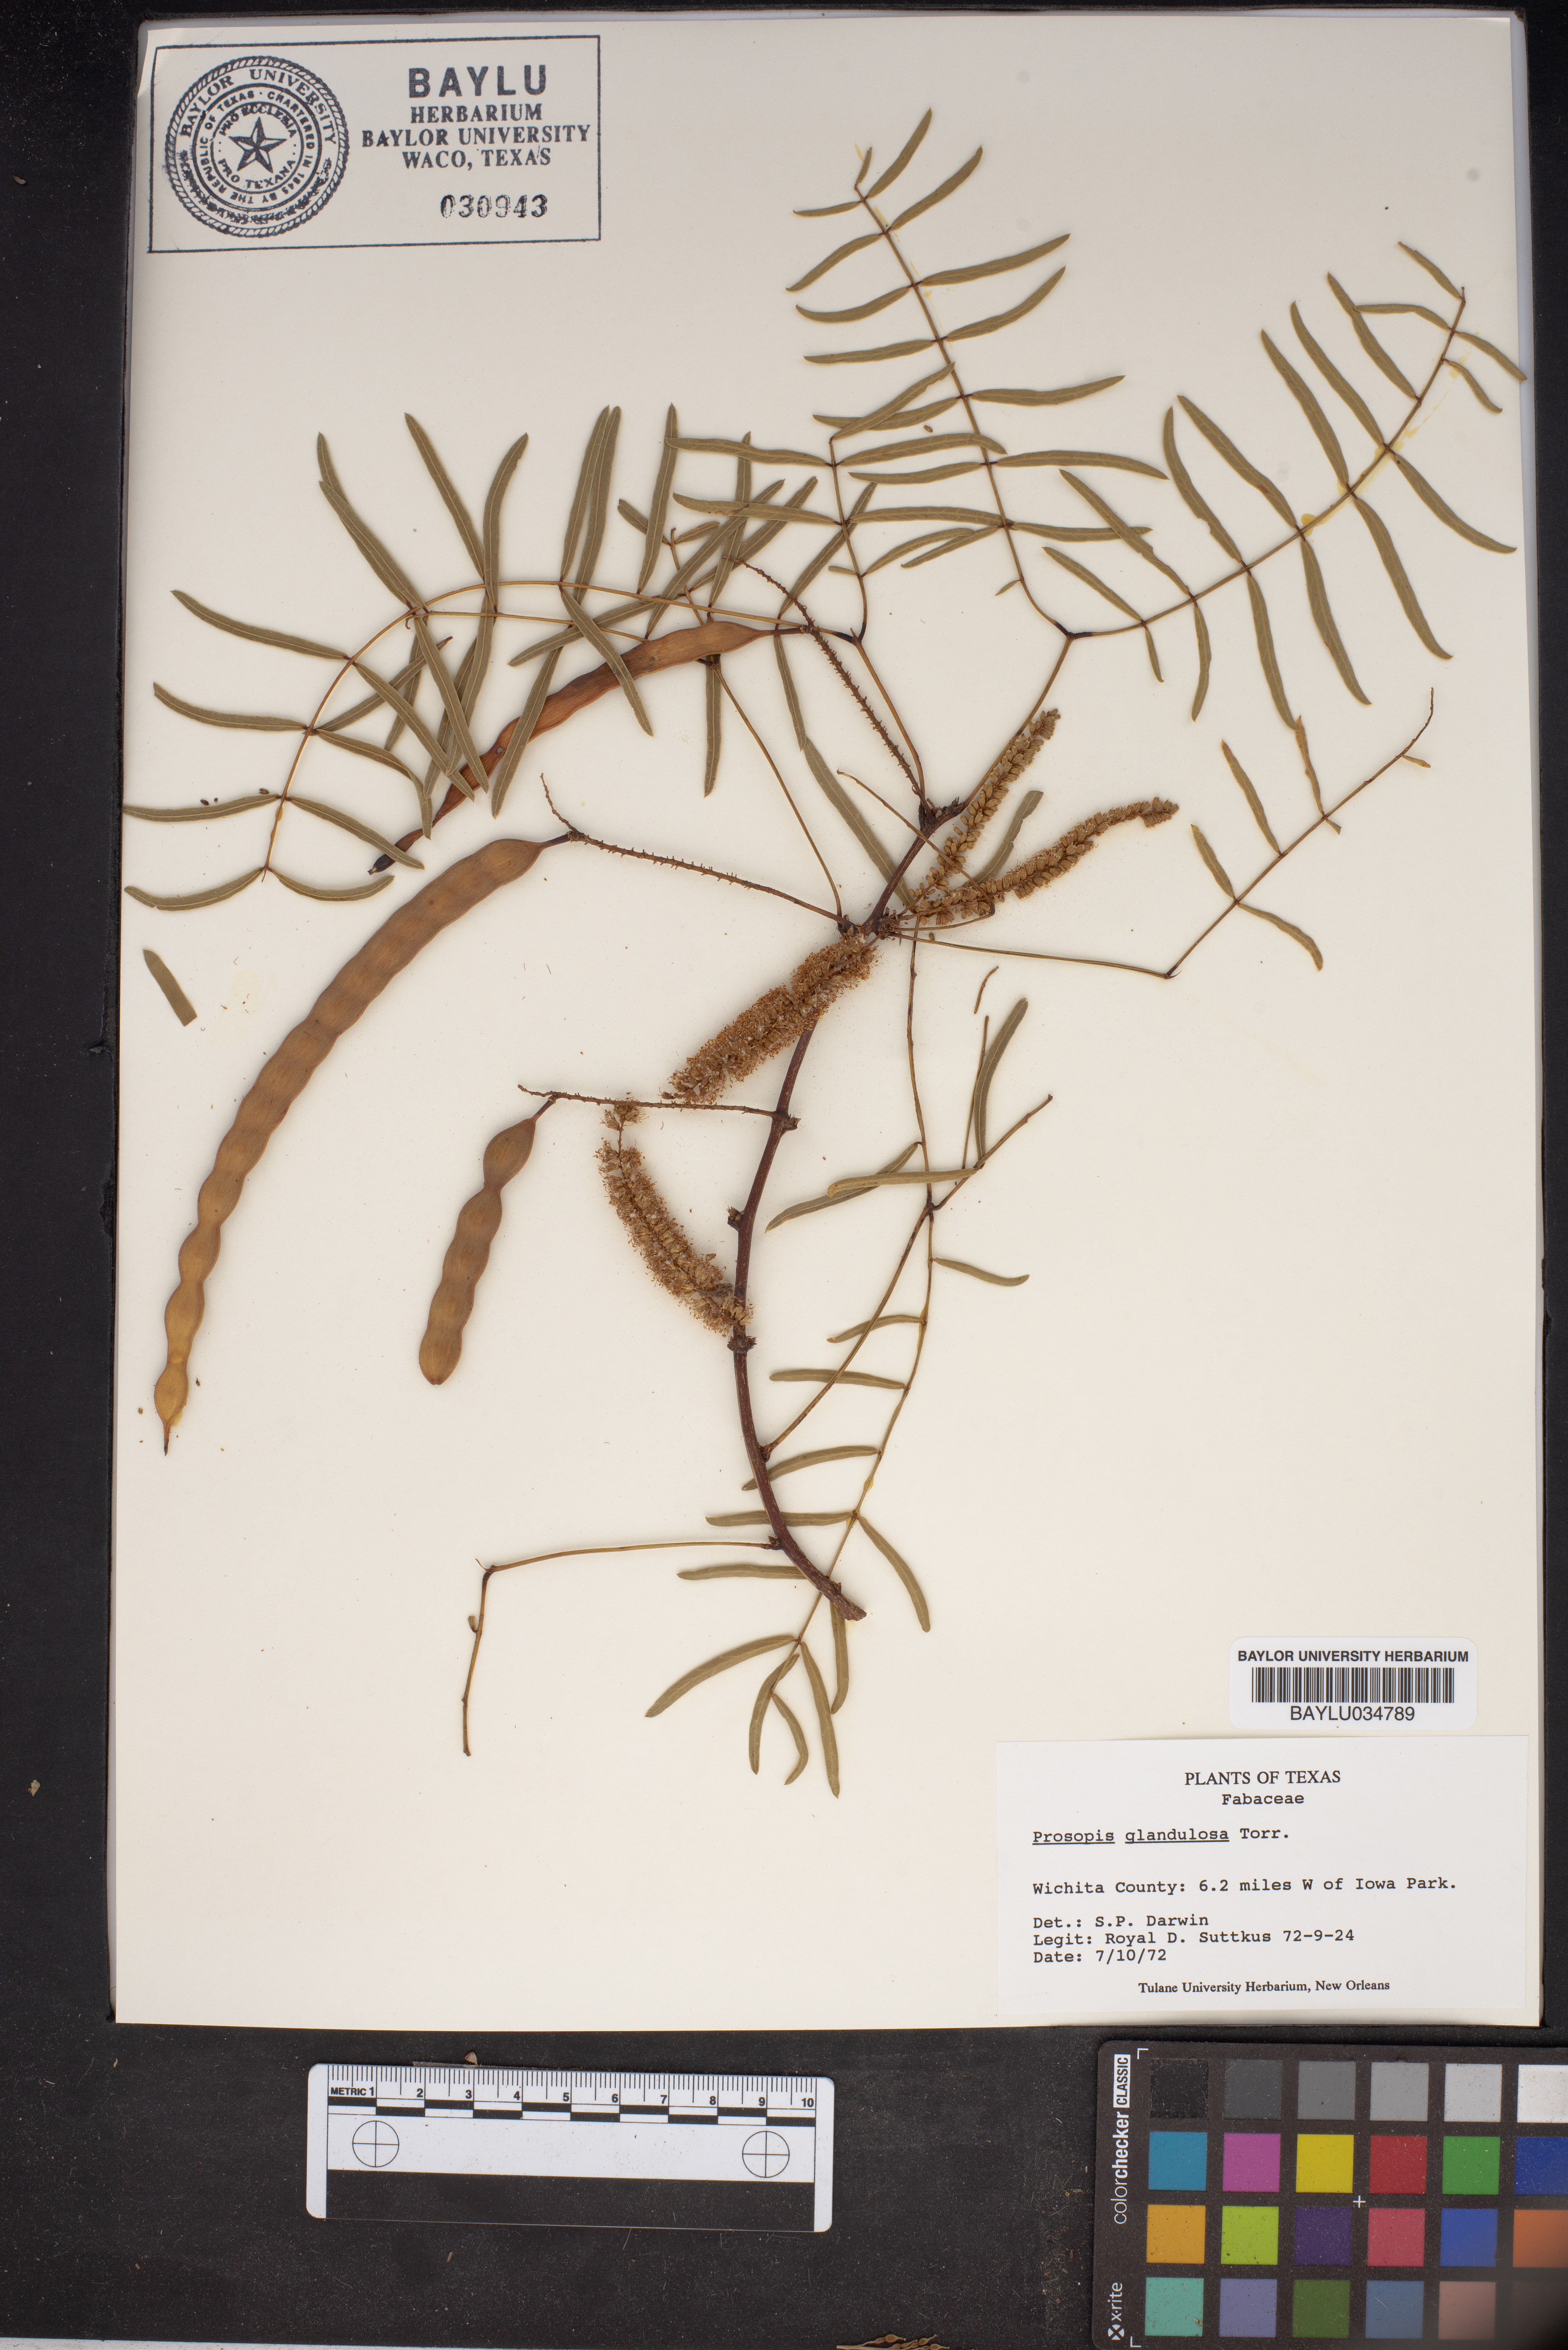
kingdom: Plantae
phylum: Tracheophyta
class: Magnoliopsida
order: Fabales
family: Fabaceae
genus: Prosopis
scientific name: Prosopis glandulosa
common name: Honey mesquite
